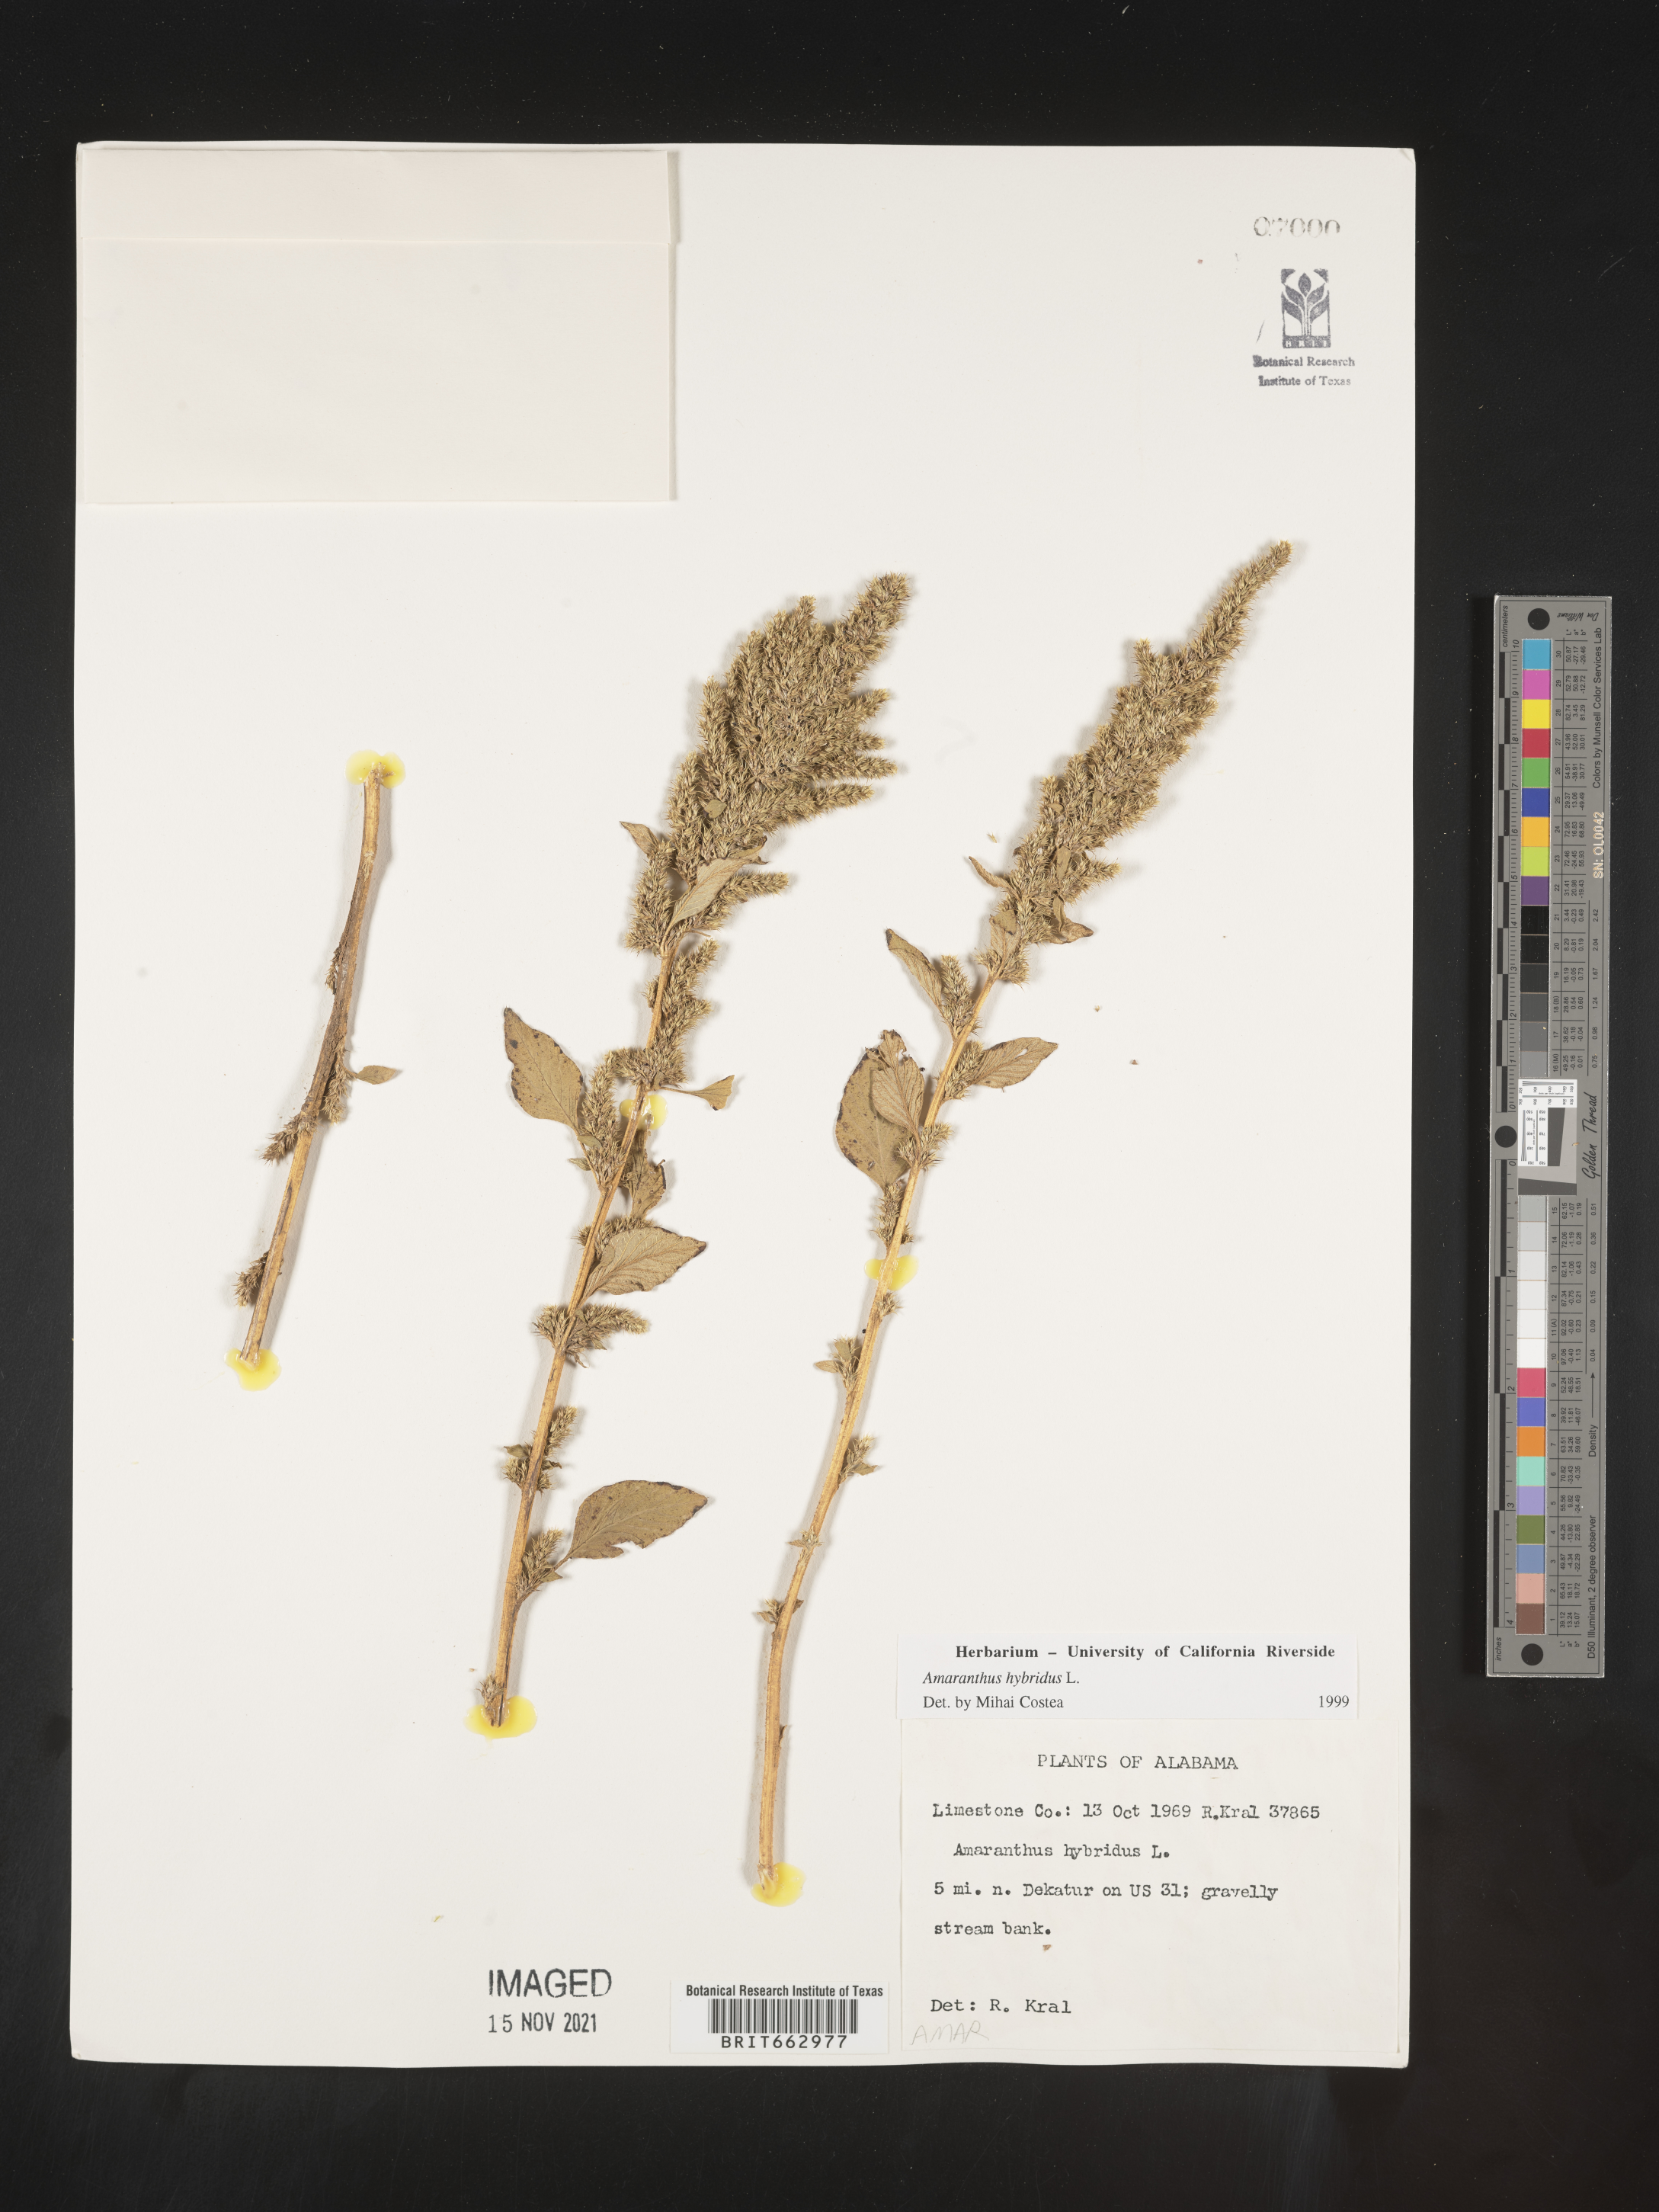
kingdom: Plantae
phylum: Tracheophyta
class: Magnoliopsida
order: Caryophyllales
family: Amaranthaceae
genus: Amaranthus
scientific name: Amaranthus hybridus
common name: Green amaranth
